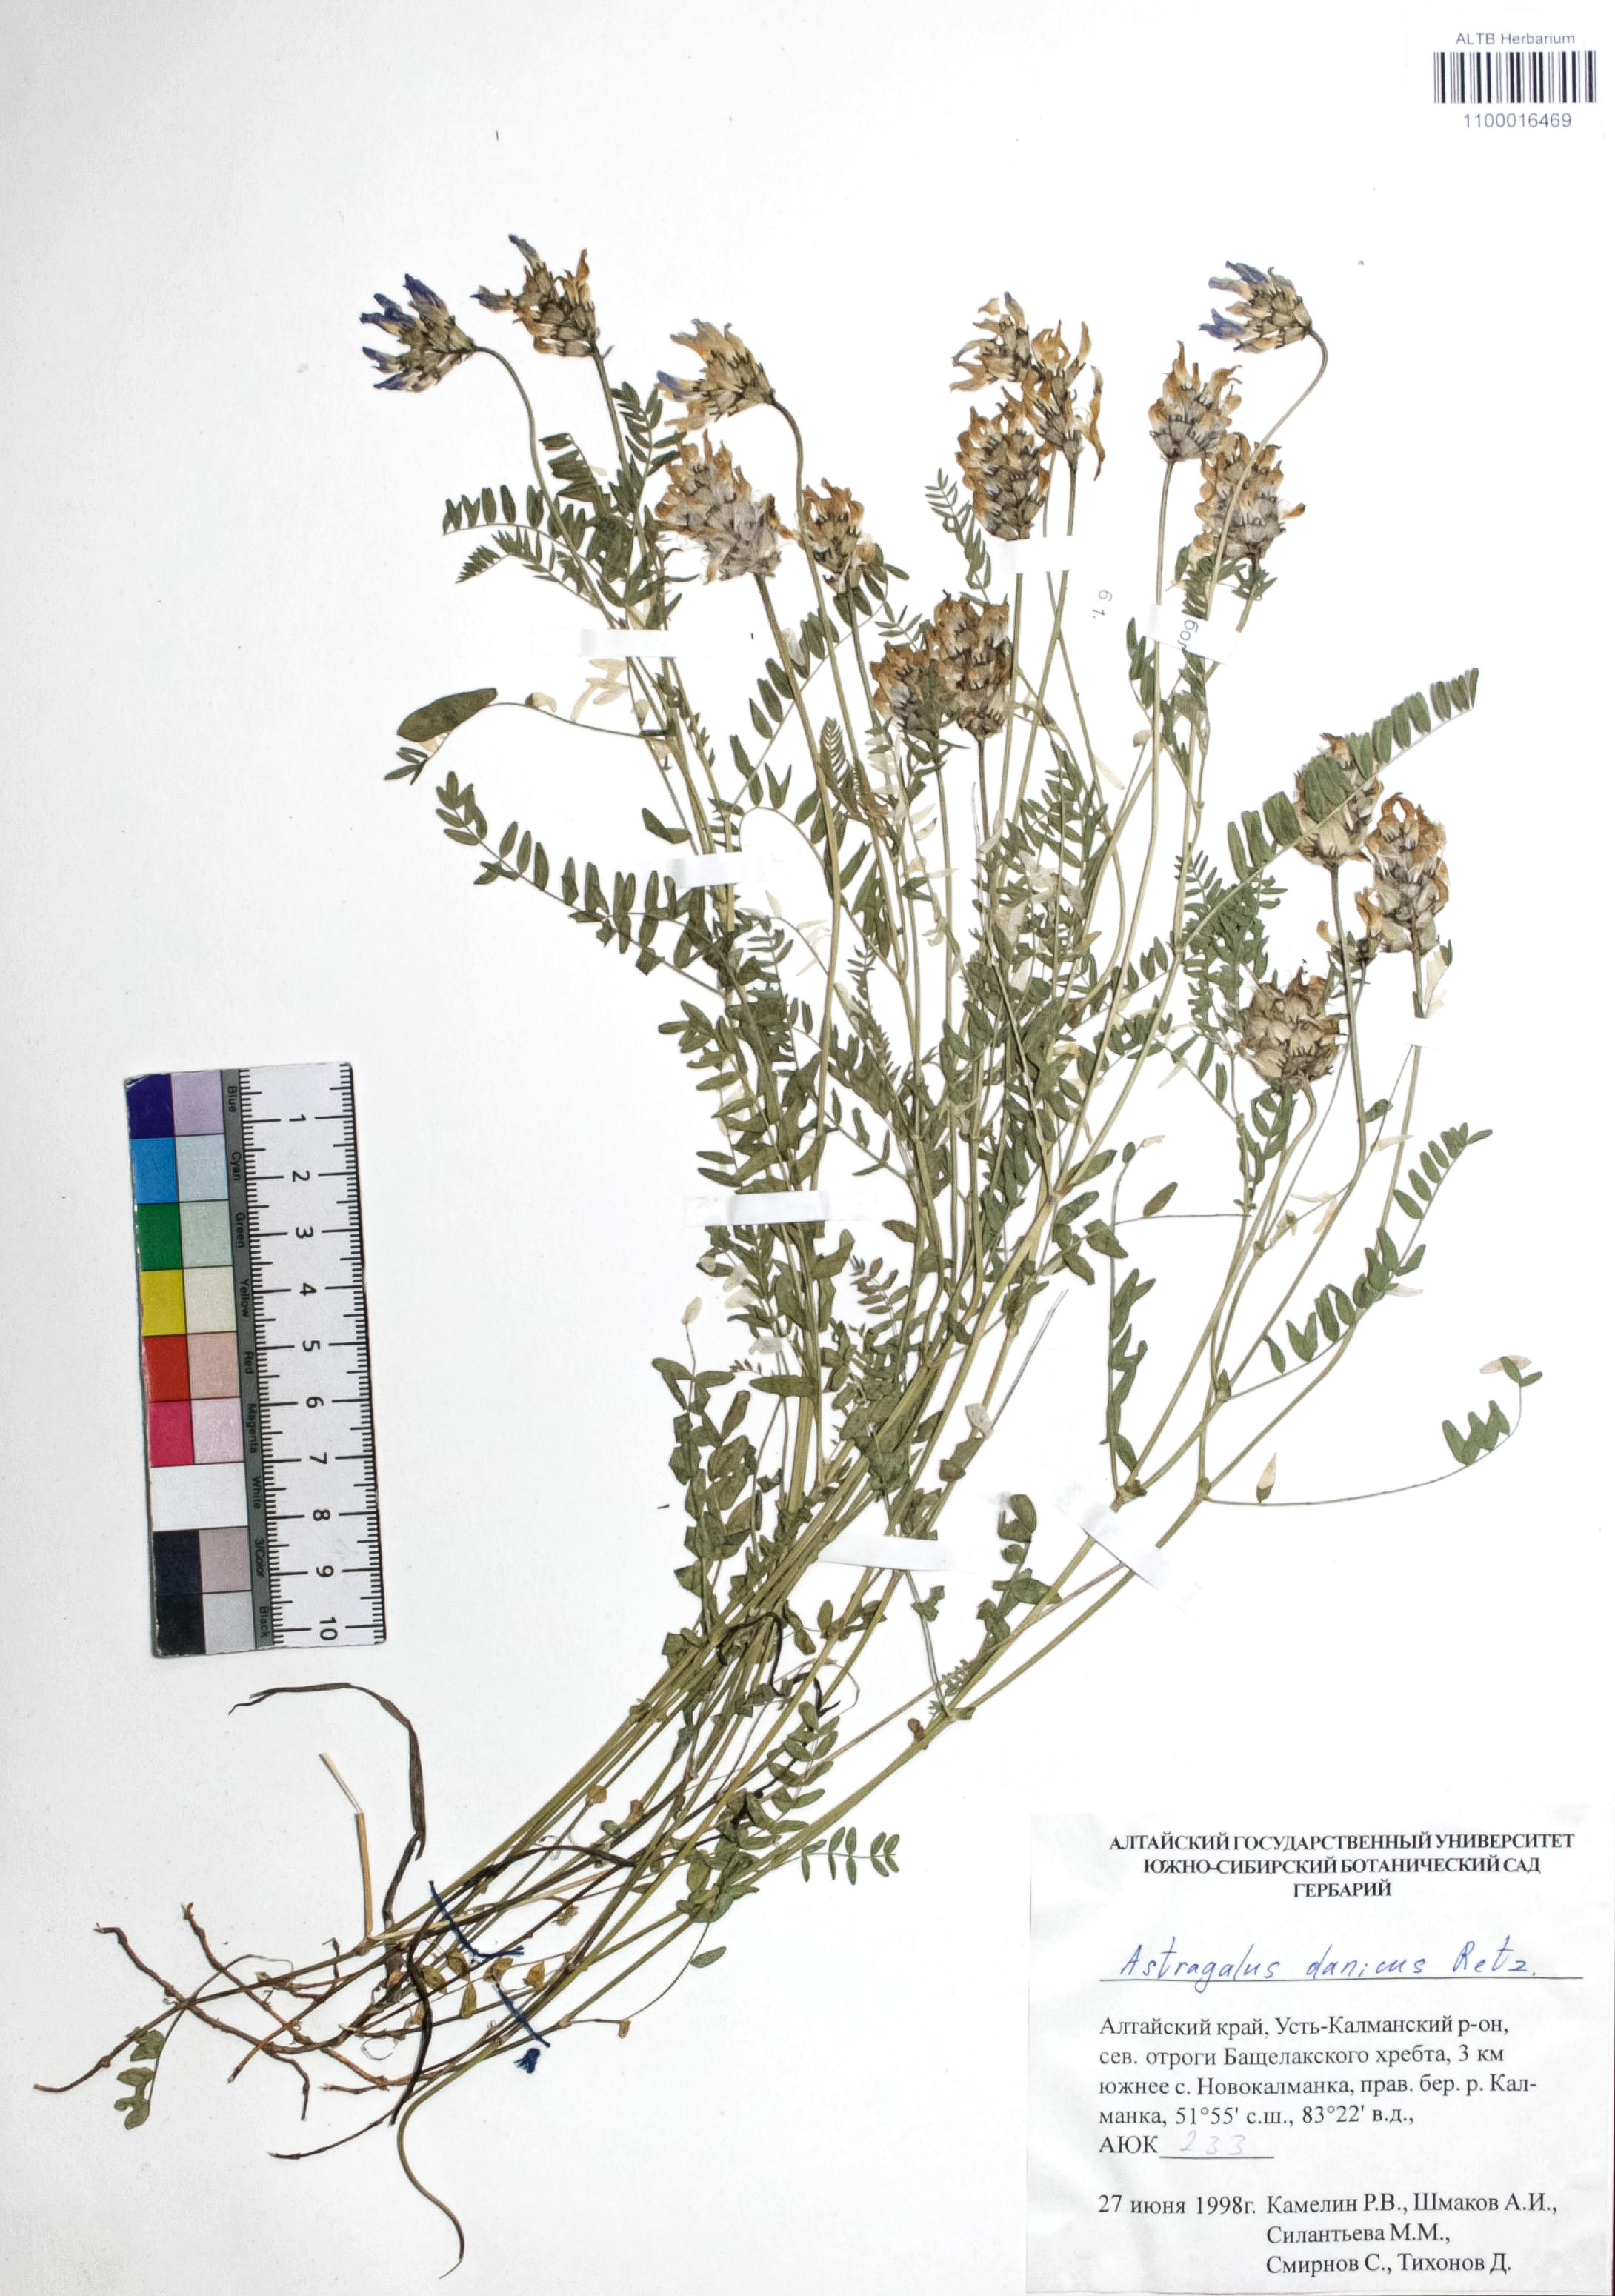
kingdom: Plantae
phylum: Tracheophyta
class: Magnoliopsida
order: Fabales
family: Fabaceae
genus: Astragalus
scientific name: Astragalus danicus
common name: Purple milk-vetch
